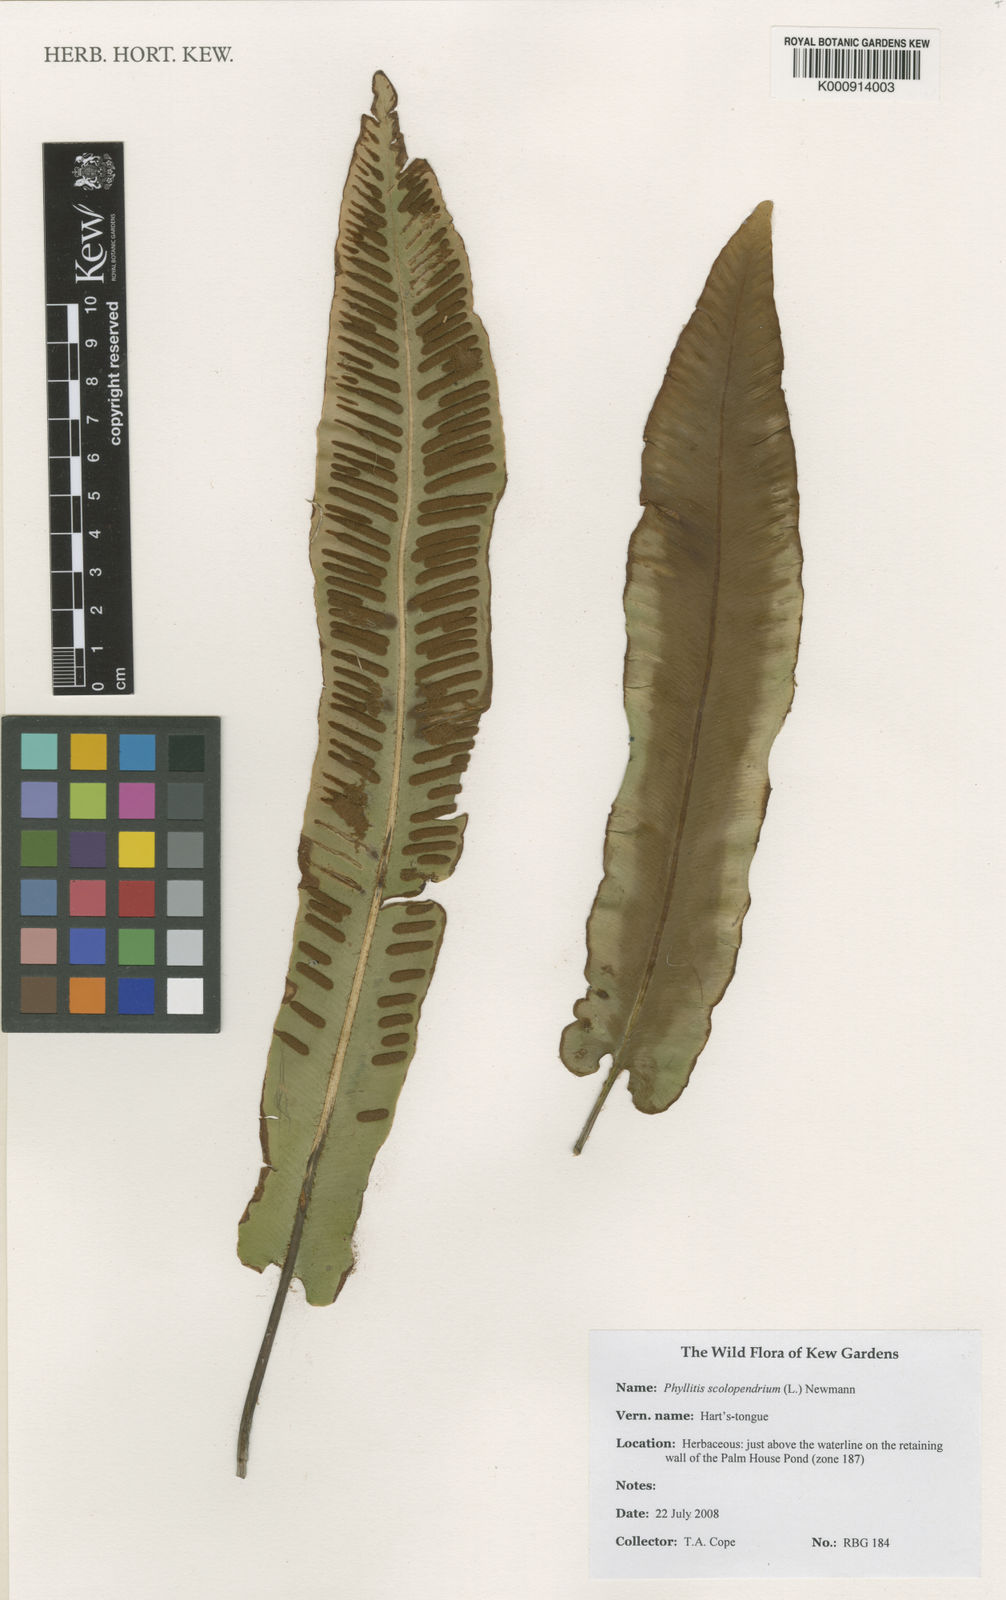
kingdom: Plantae
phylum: Tracheophyta
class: Polypodiopsida
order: Polypodiales
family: Aspleniaceae
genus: Asplenium
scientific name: Asplenium scolopendrium
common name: Hart's-tongue fern
